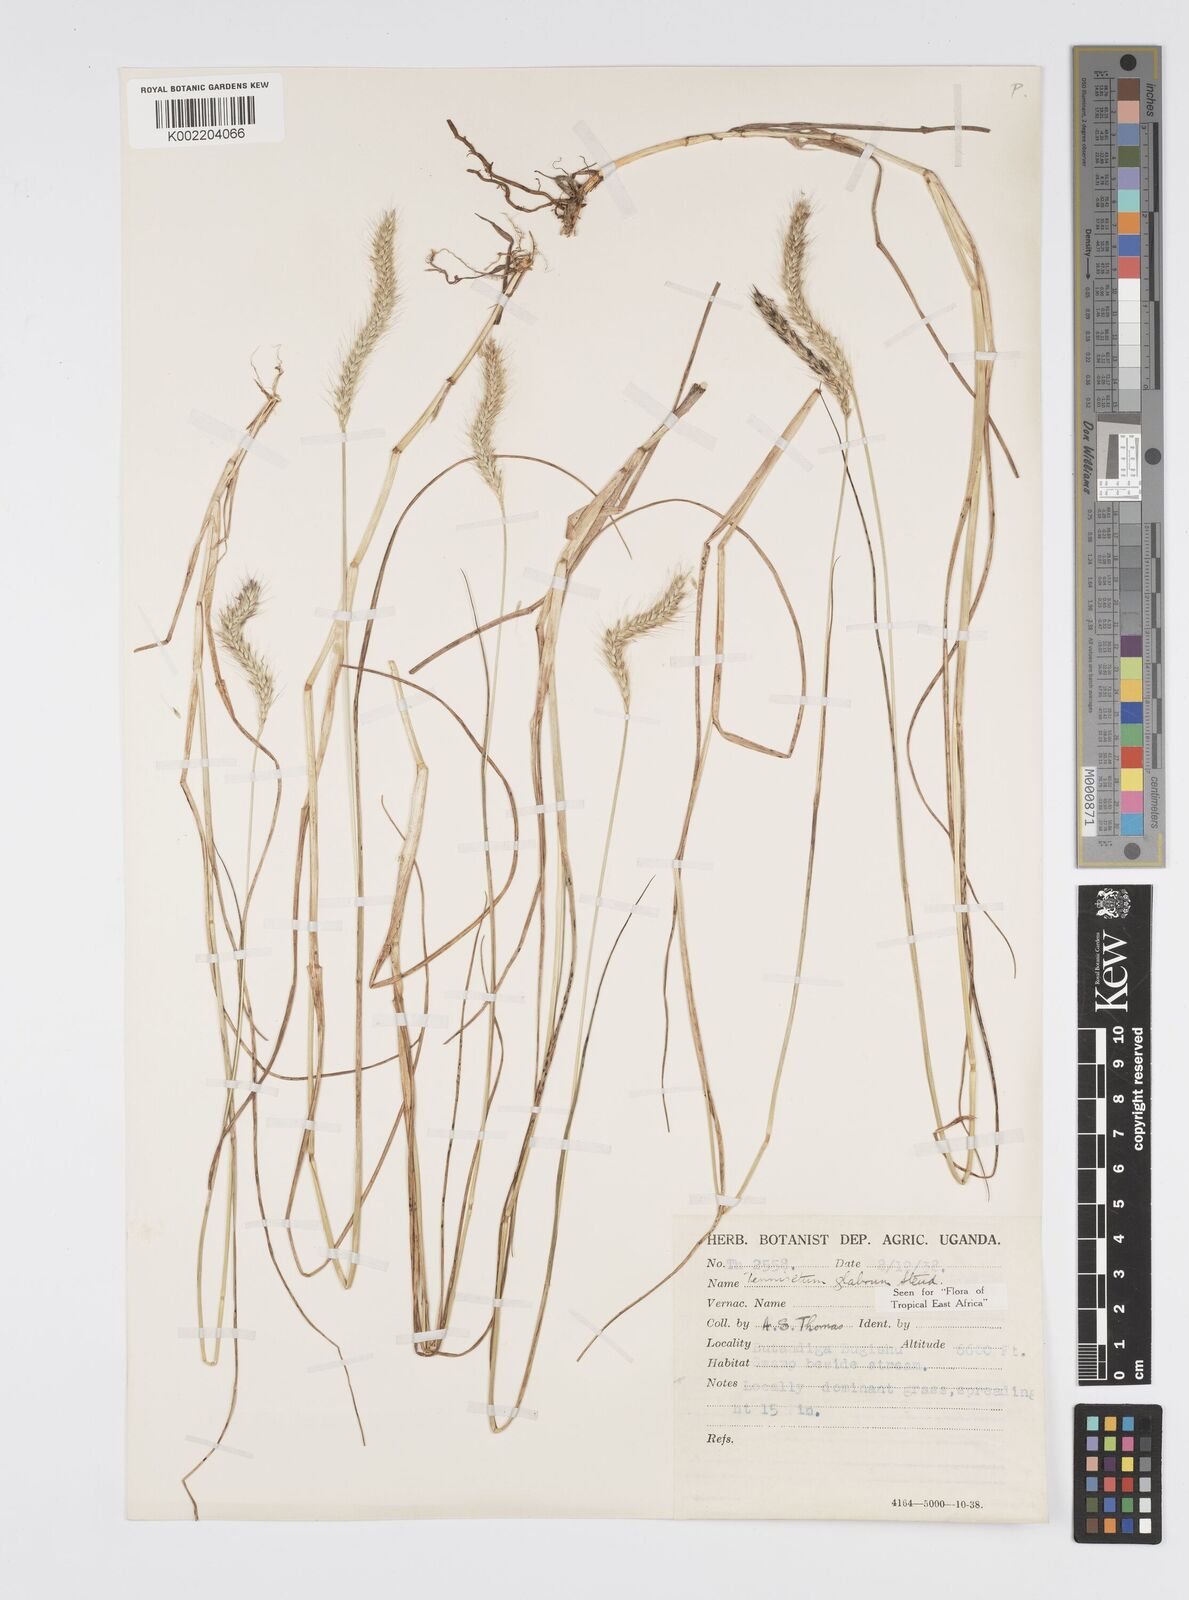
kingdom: Plantae
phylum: Tracheophyta
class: Liliopsida
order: Poales
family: Poaceae
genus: Cenchrus
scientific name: Cenchrus geniculatus
